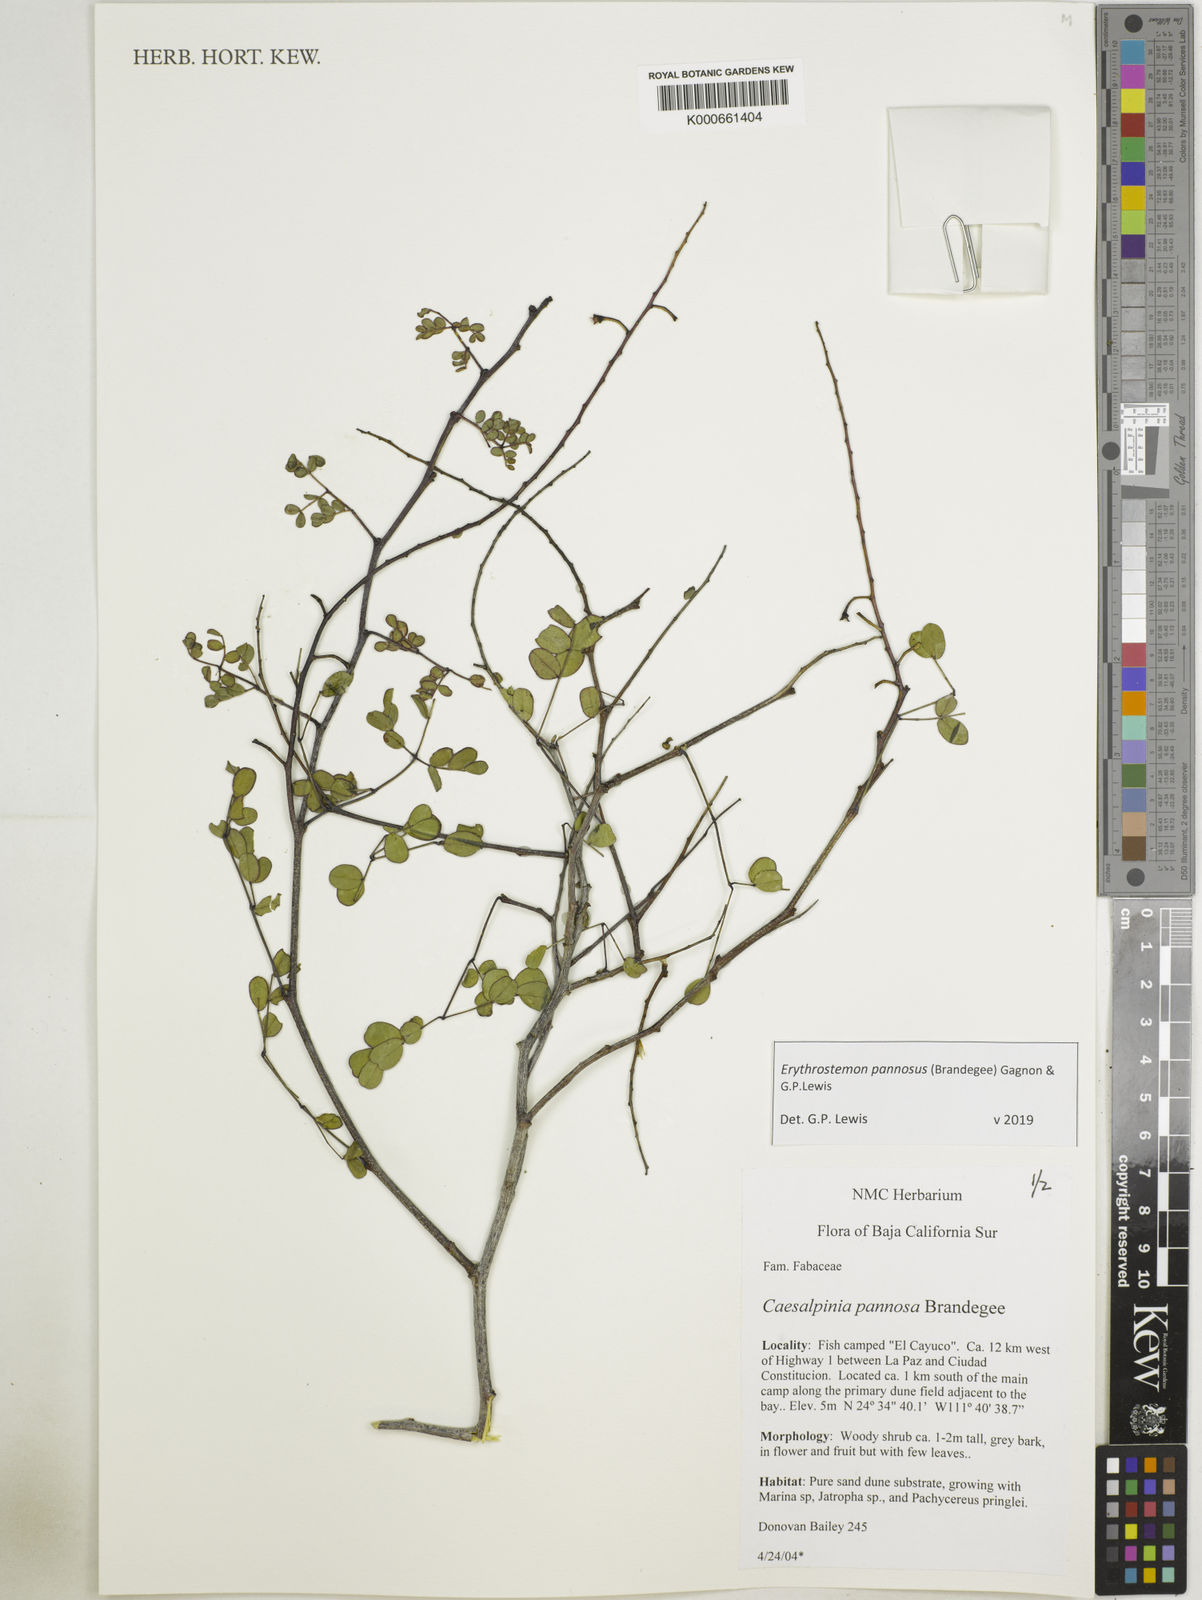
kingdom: Plantae
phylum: Tracheophyta
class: Magnoliopsida
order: Fabales
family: Fabaceae
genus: Erythrostemon
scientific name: Erythrostemon pannosus
